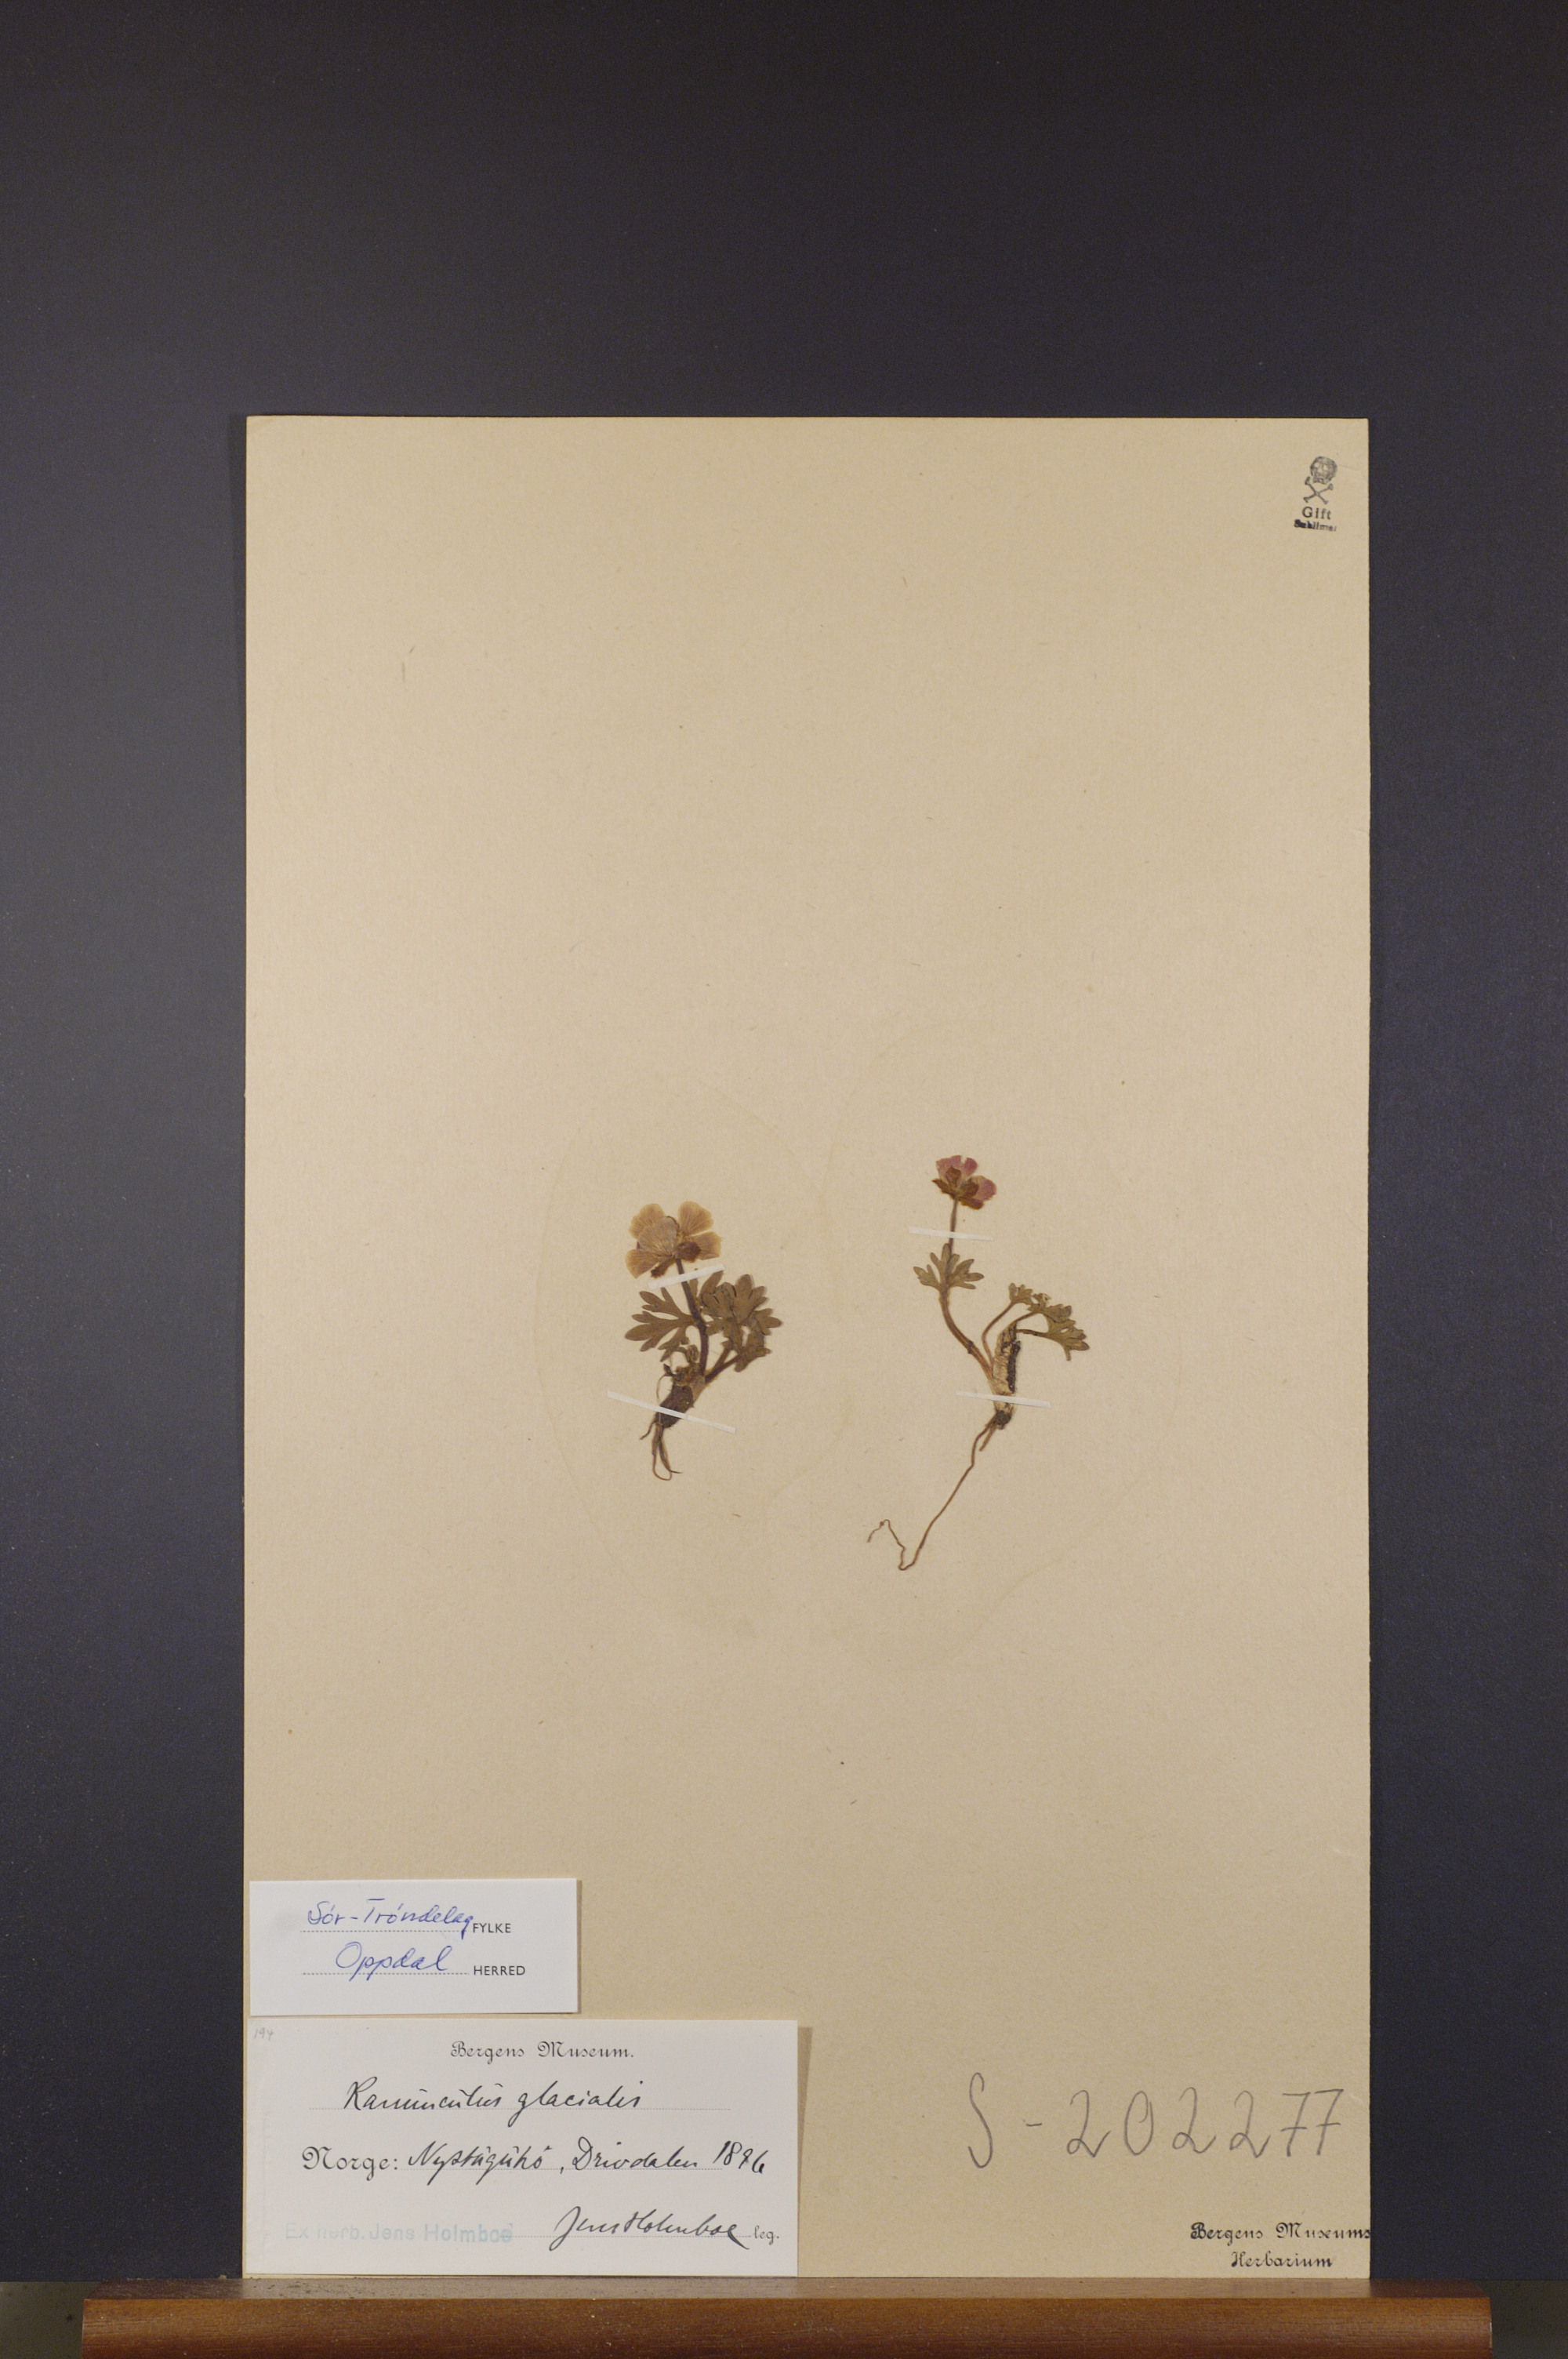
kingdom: Plantae
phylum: Tracheophyta
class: Magnoliopsida
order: Ranunculales
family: Ranunculaceae
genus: Ranunculus
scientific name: Ranunculus glacialis
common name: Glacier buttercup
